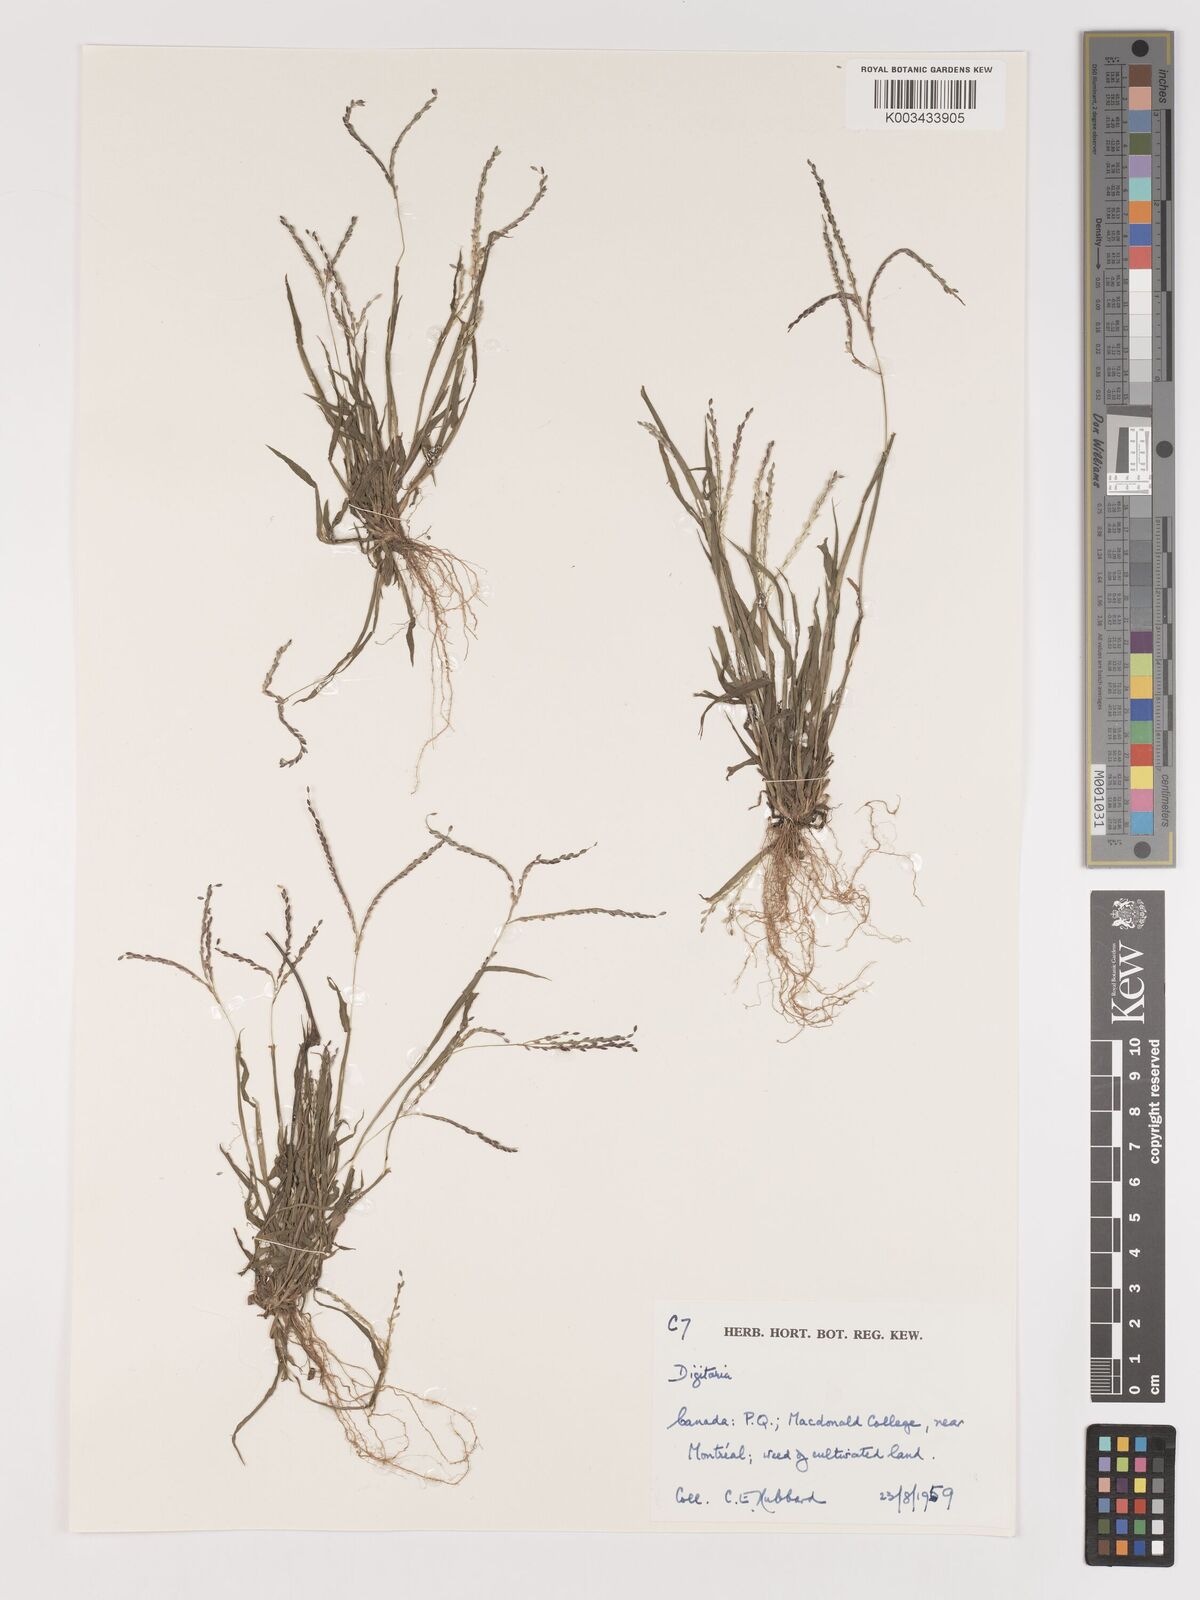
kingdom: Plantae
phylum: Tracheophyta
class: Liliopsida
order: Poales
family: Poaceae
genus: Digitaria
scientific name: Digitaria ischaemum
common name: Smooth crabgrass
